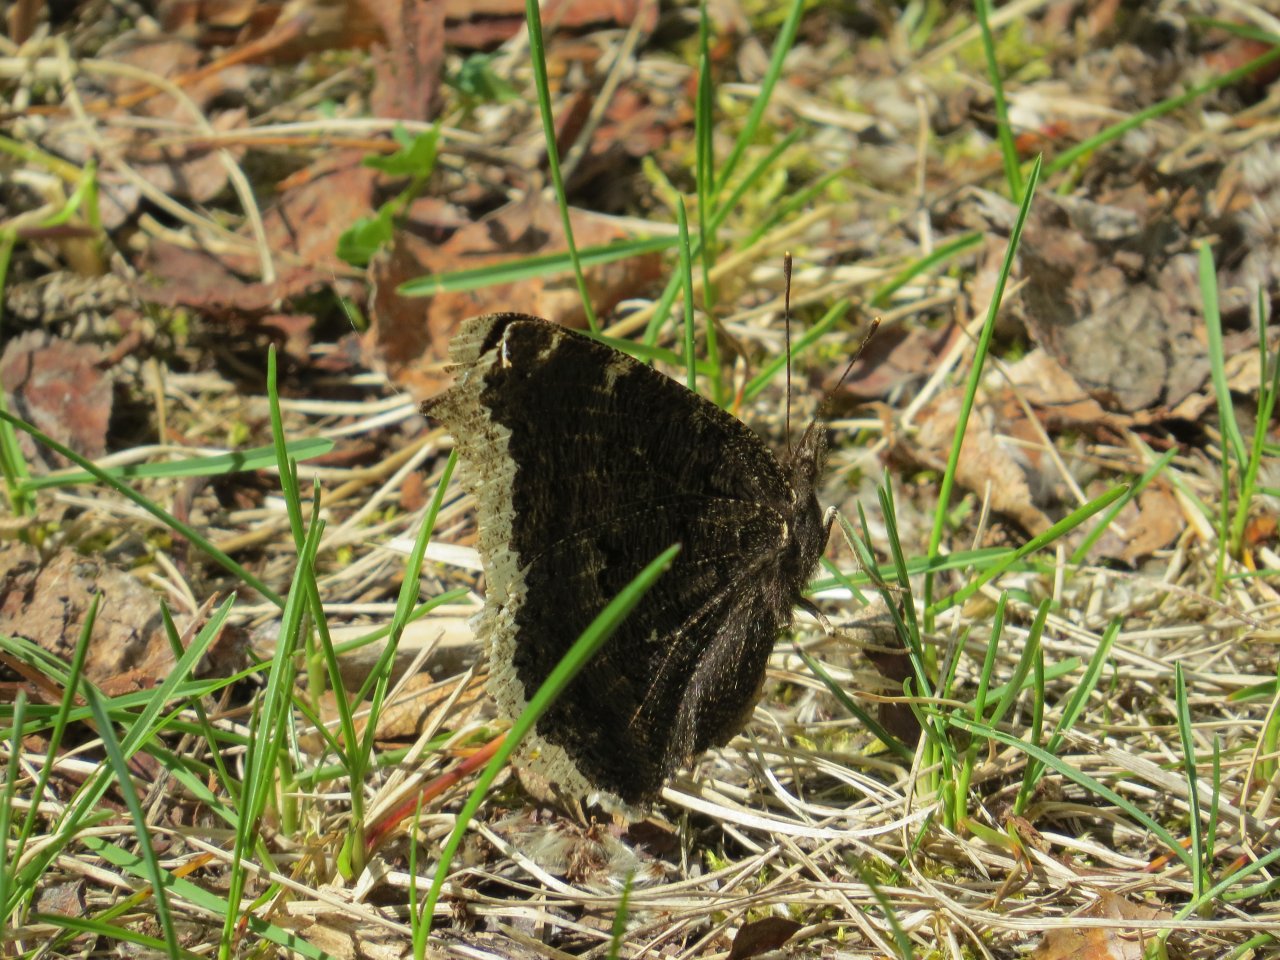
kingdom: Animalia
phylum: Arthropoda
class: Insecta
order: Lepidoptera
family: Nymphalidae
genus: Nymphalis
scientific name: Nymphalis antiopa
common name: Mourning Cloak
